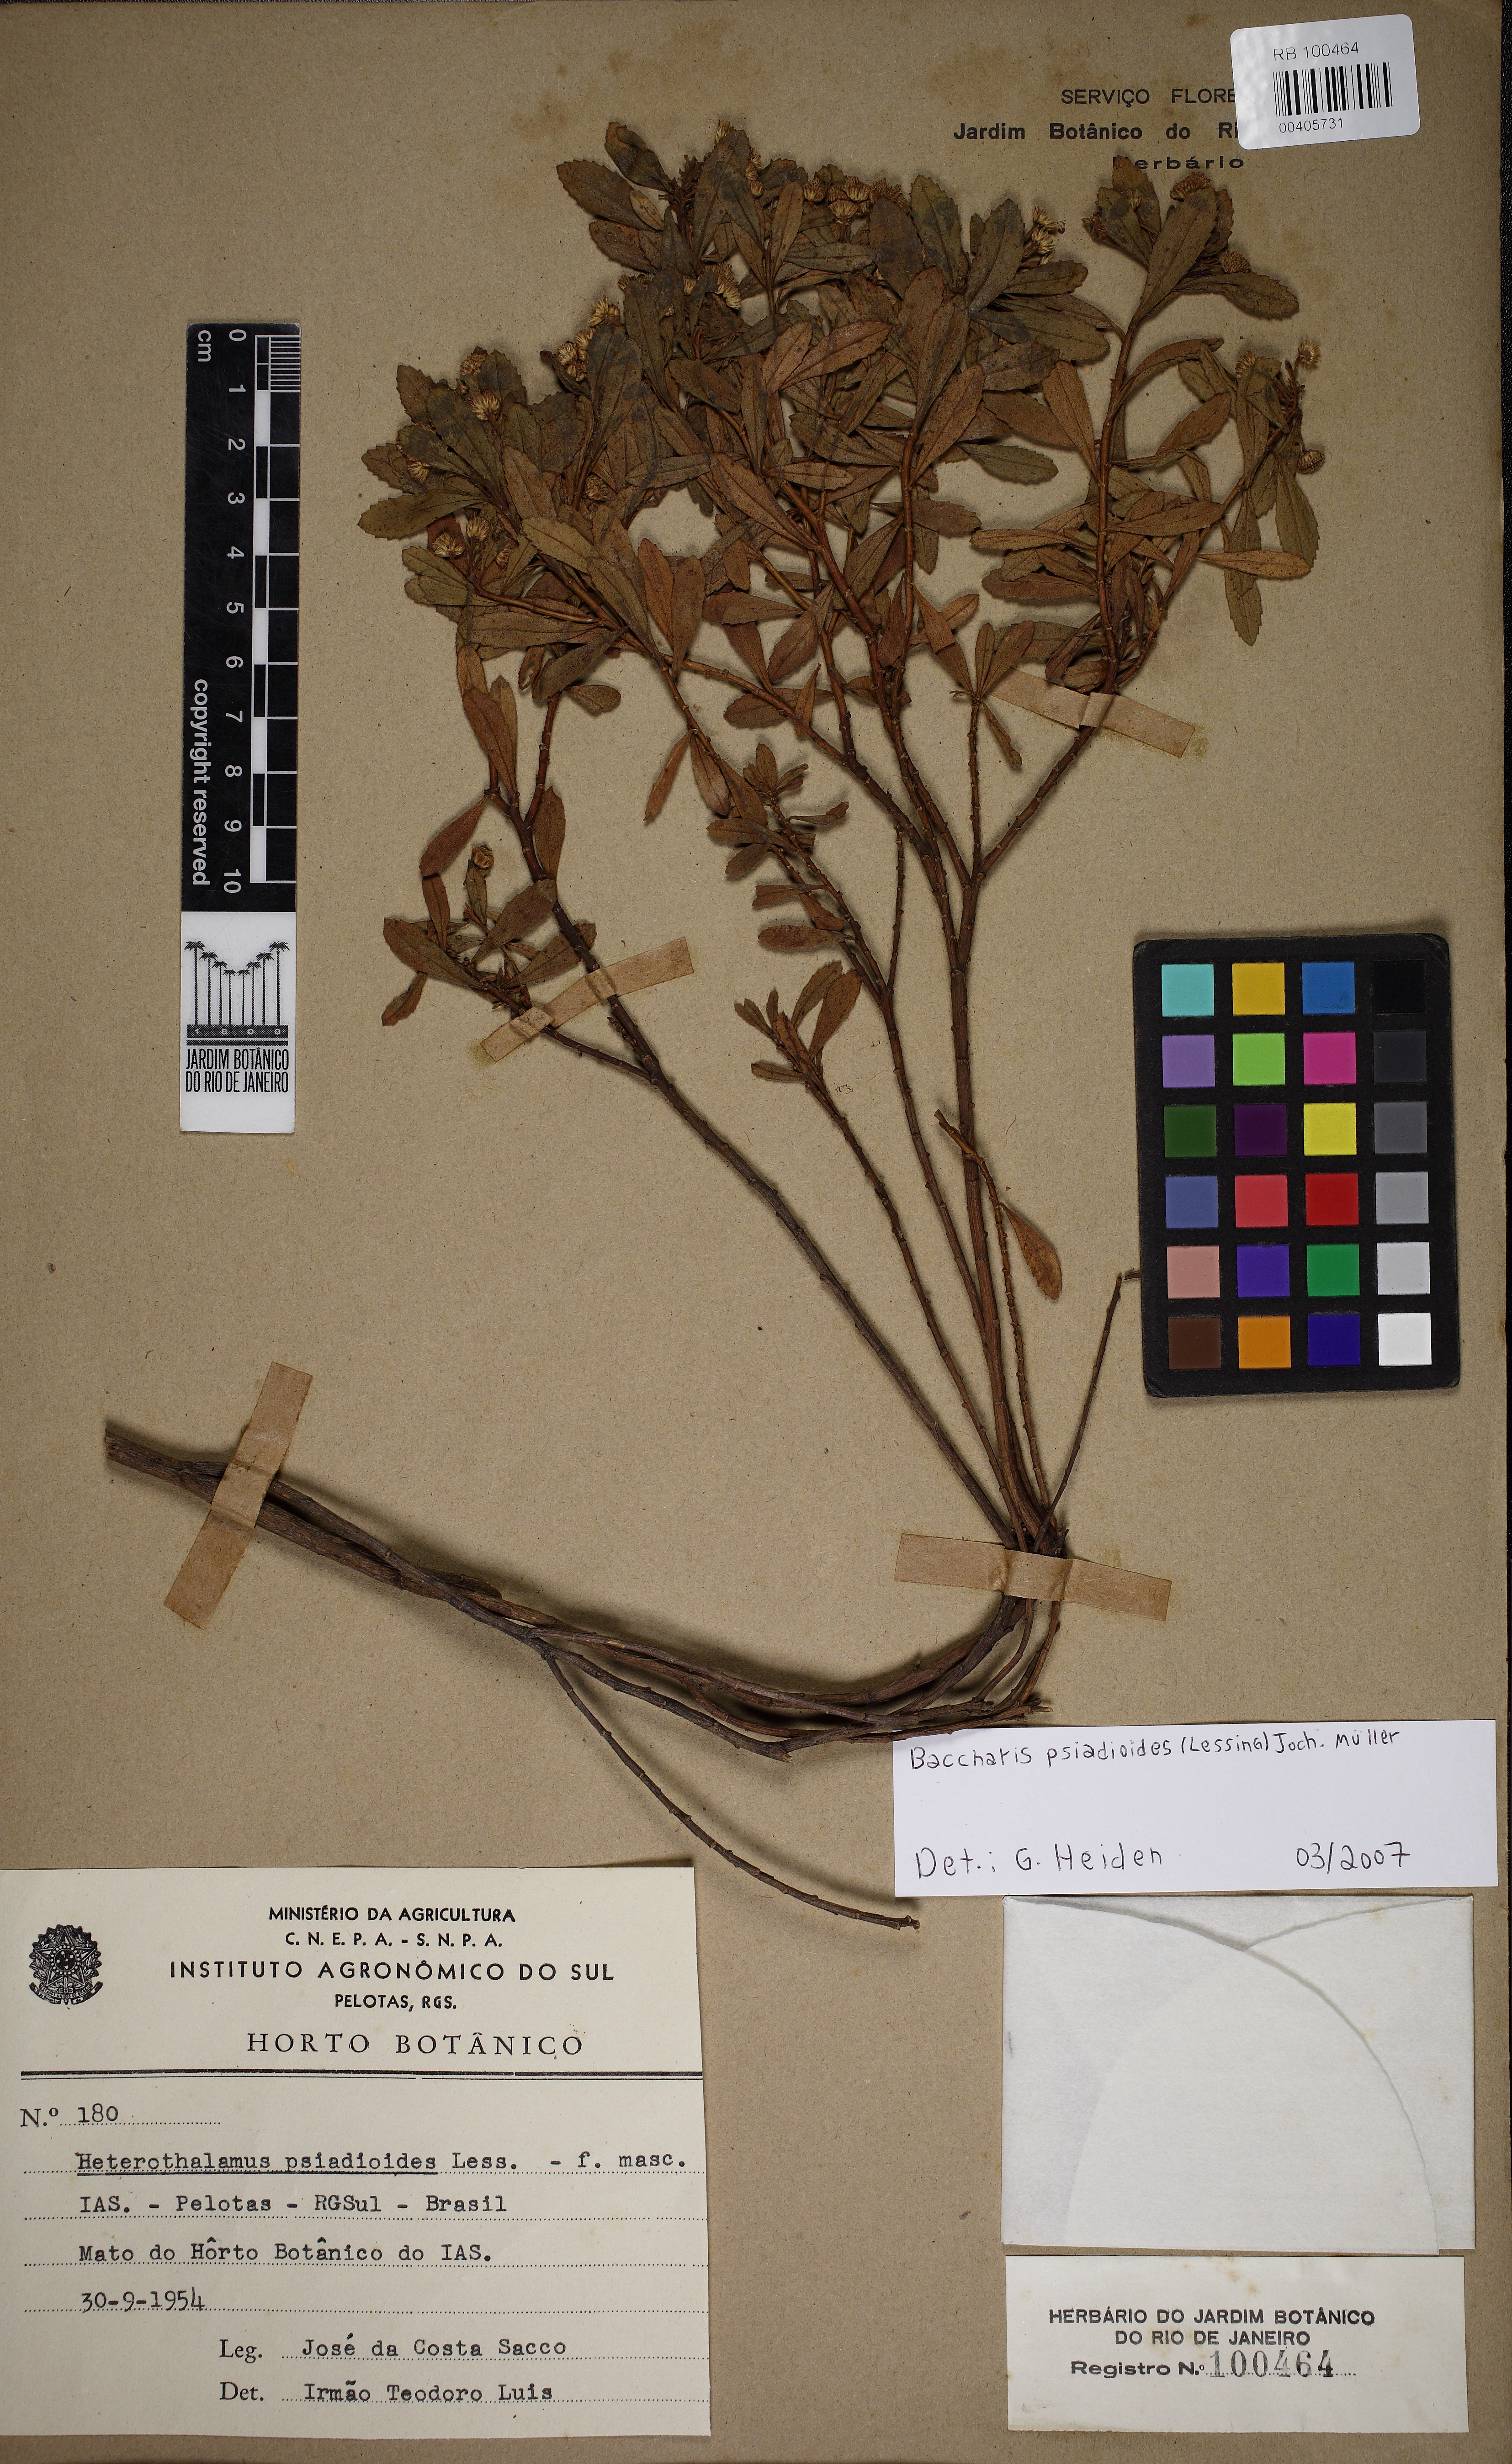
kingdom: Plantae
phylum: Tracheophyta
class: Magnoliopsida
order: Asterales
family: Asteraceae
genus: Baccharis
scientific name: Baccharis psiadioides
